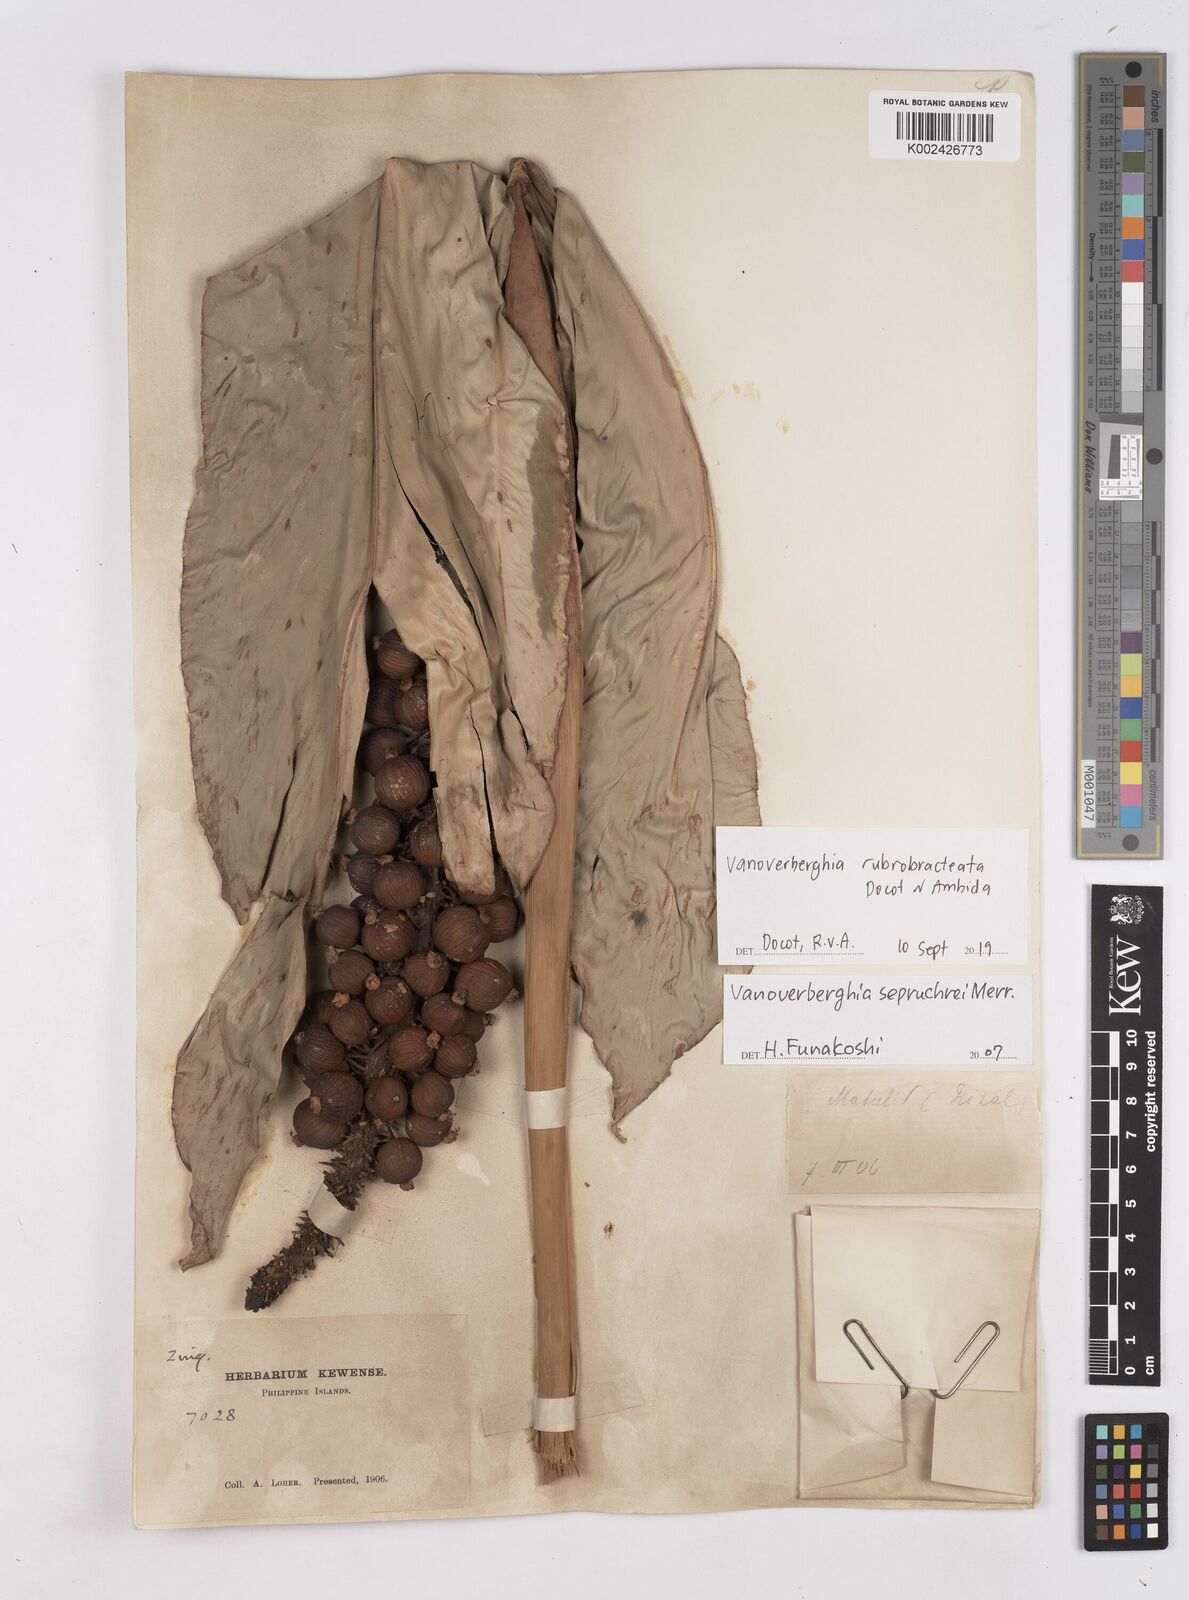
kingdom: Plantae
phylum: Tracheophyta
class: Liliopsida
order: Zingiberales
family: Zingiberaceae
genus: Vanoverberghia
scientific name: Vanoverberghia rubrobracteata
